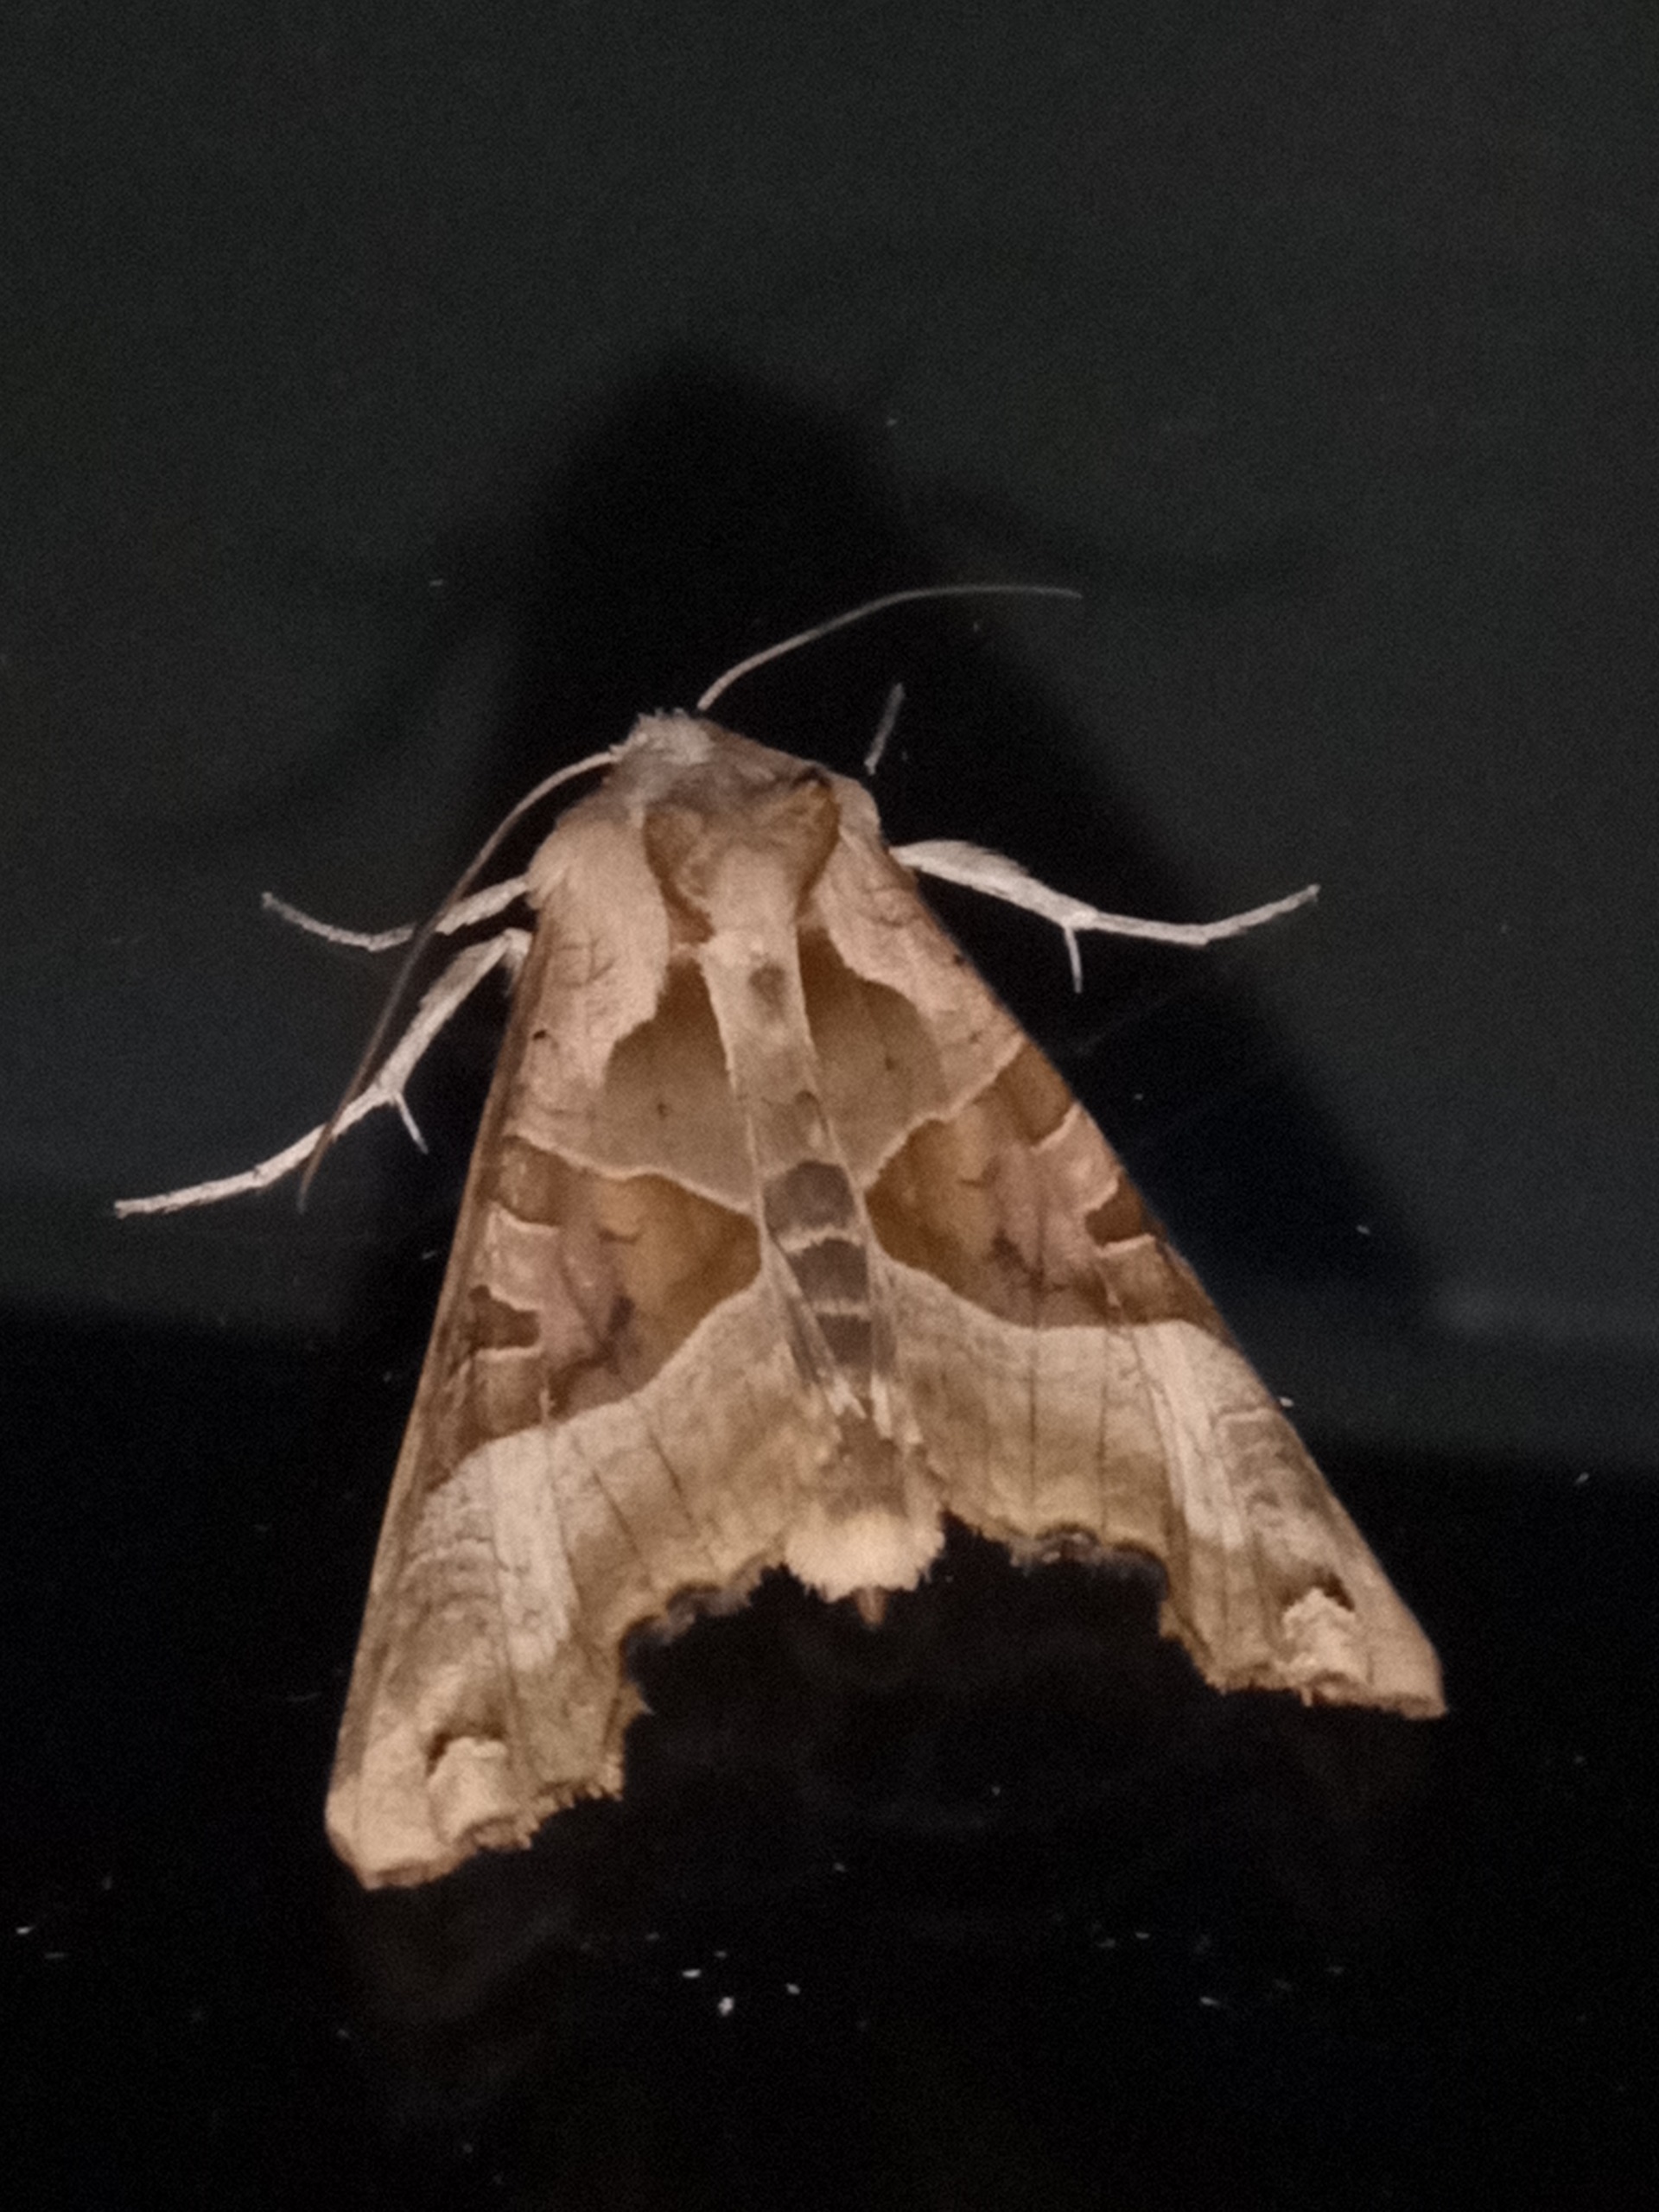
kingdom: Animalia
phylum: Arthropoda
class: Insecta
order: Lepidoptera
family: Noctuidae
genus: Phlogophora
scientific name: Phlogophora meticulosa
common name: Agatugle
